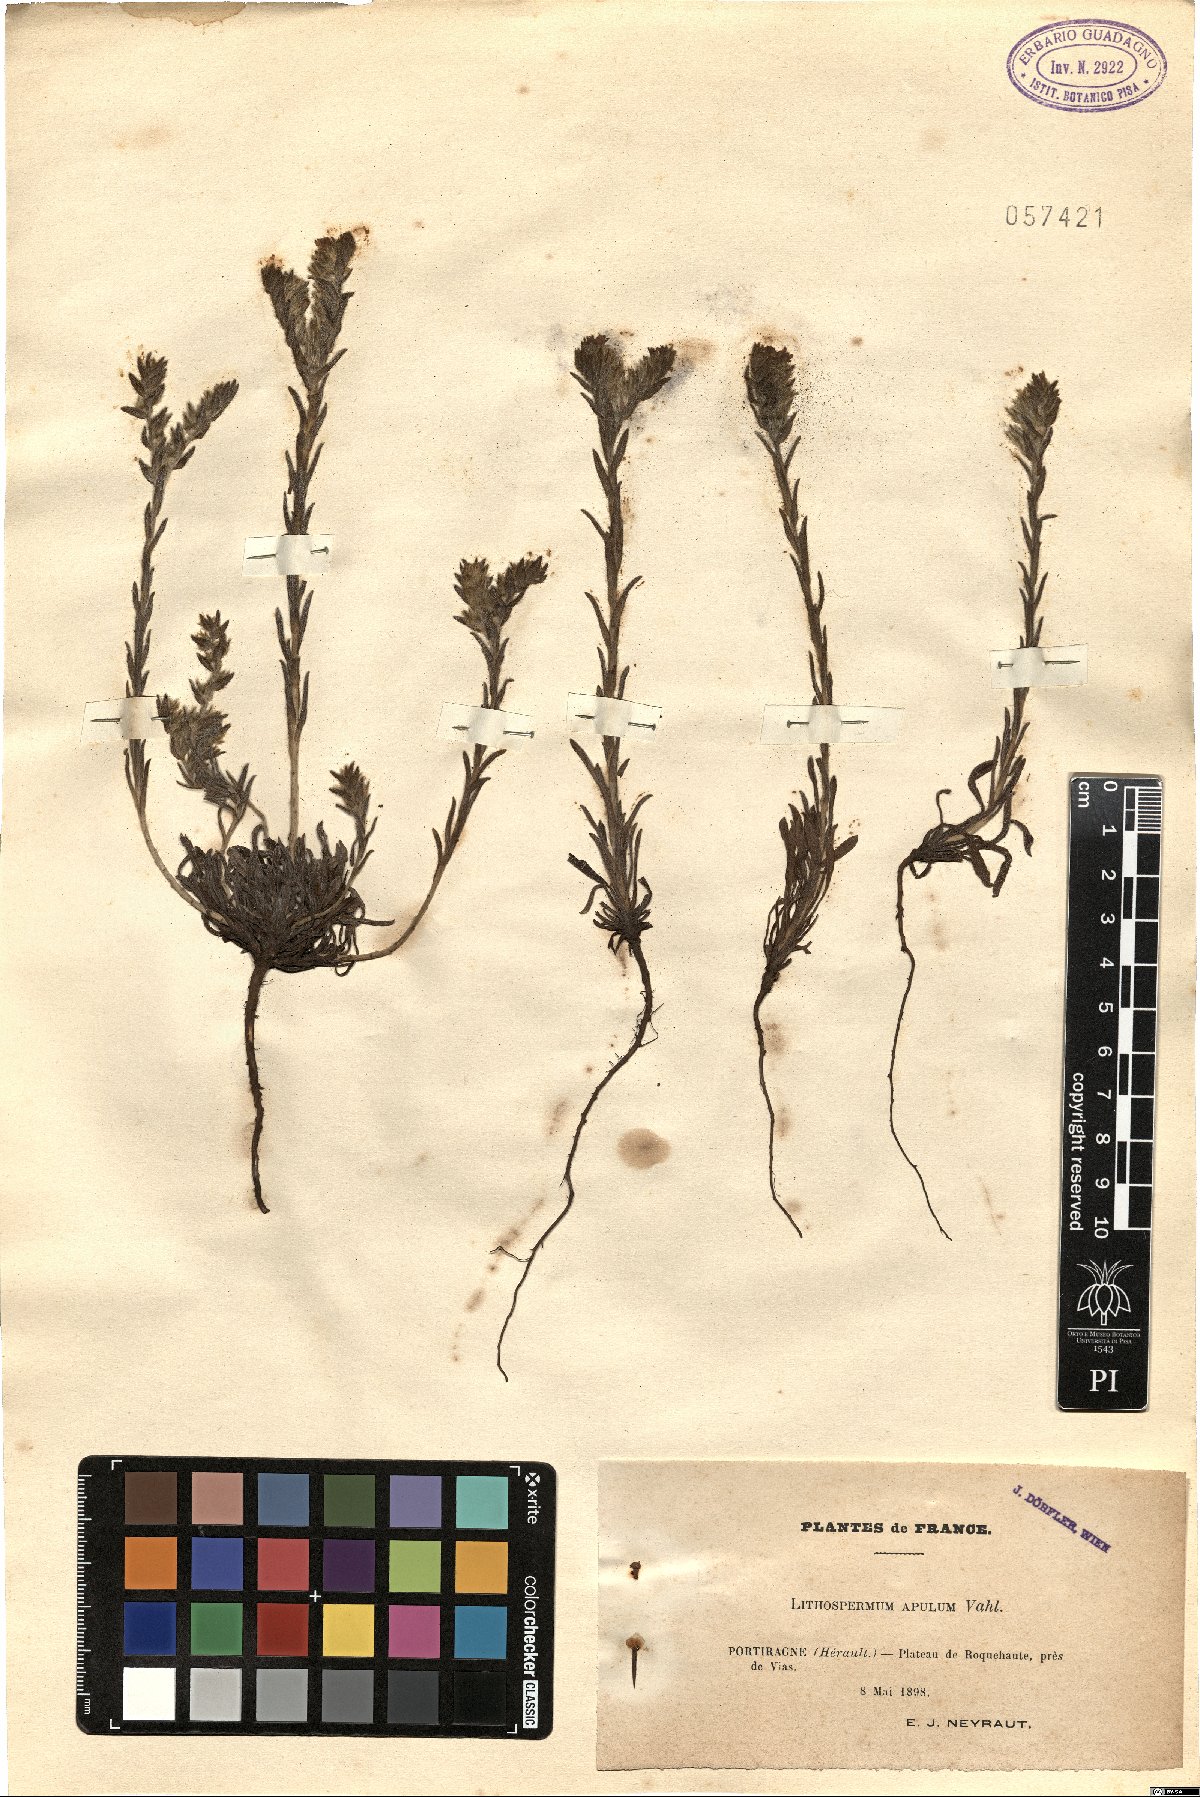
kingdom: Plantae
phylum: Tracheophyta
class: Magnoliopsida
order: Boraginales
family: Boraginaceae
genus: Neatostema
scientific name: Neatostema apulum
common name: Hairy sheepweed
